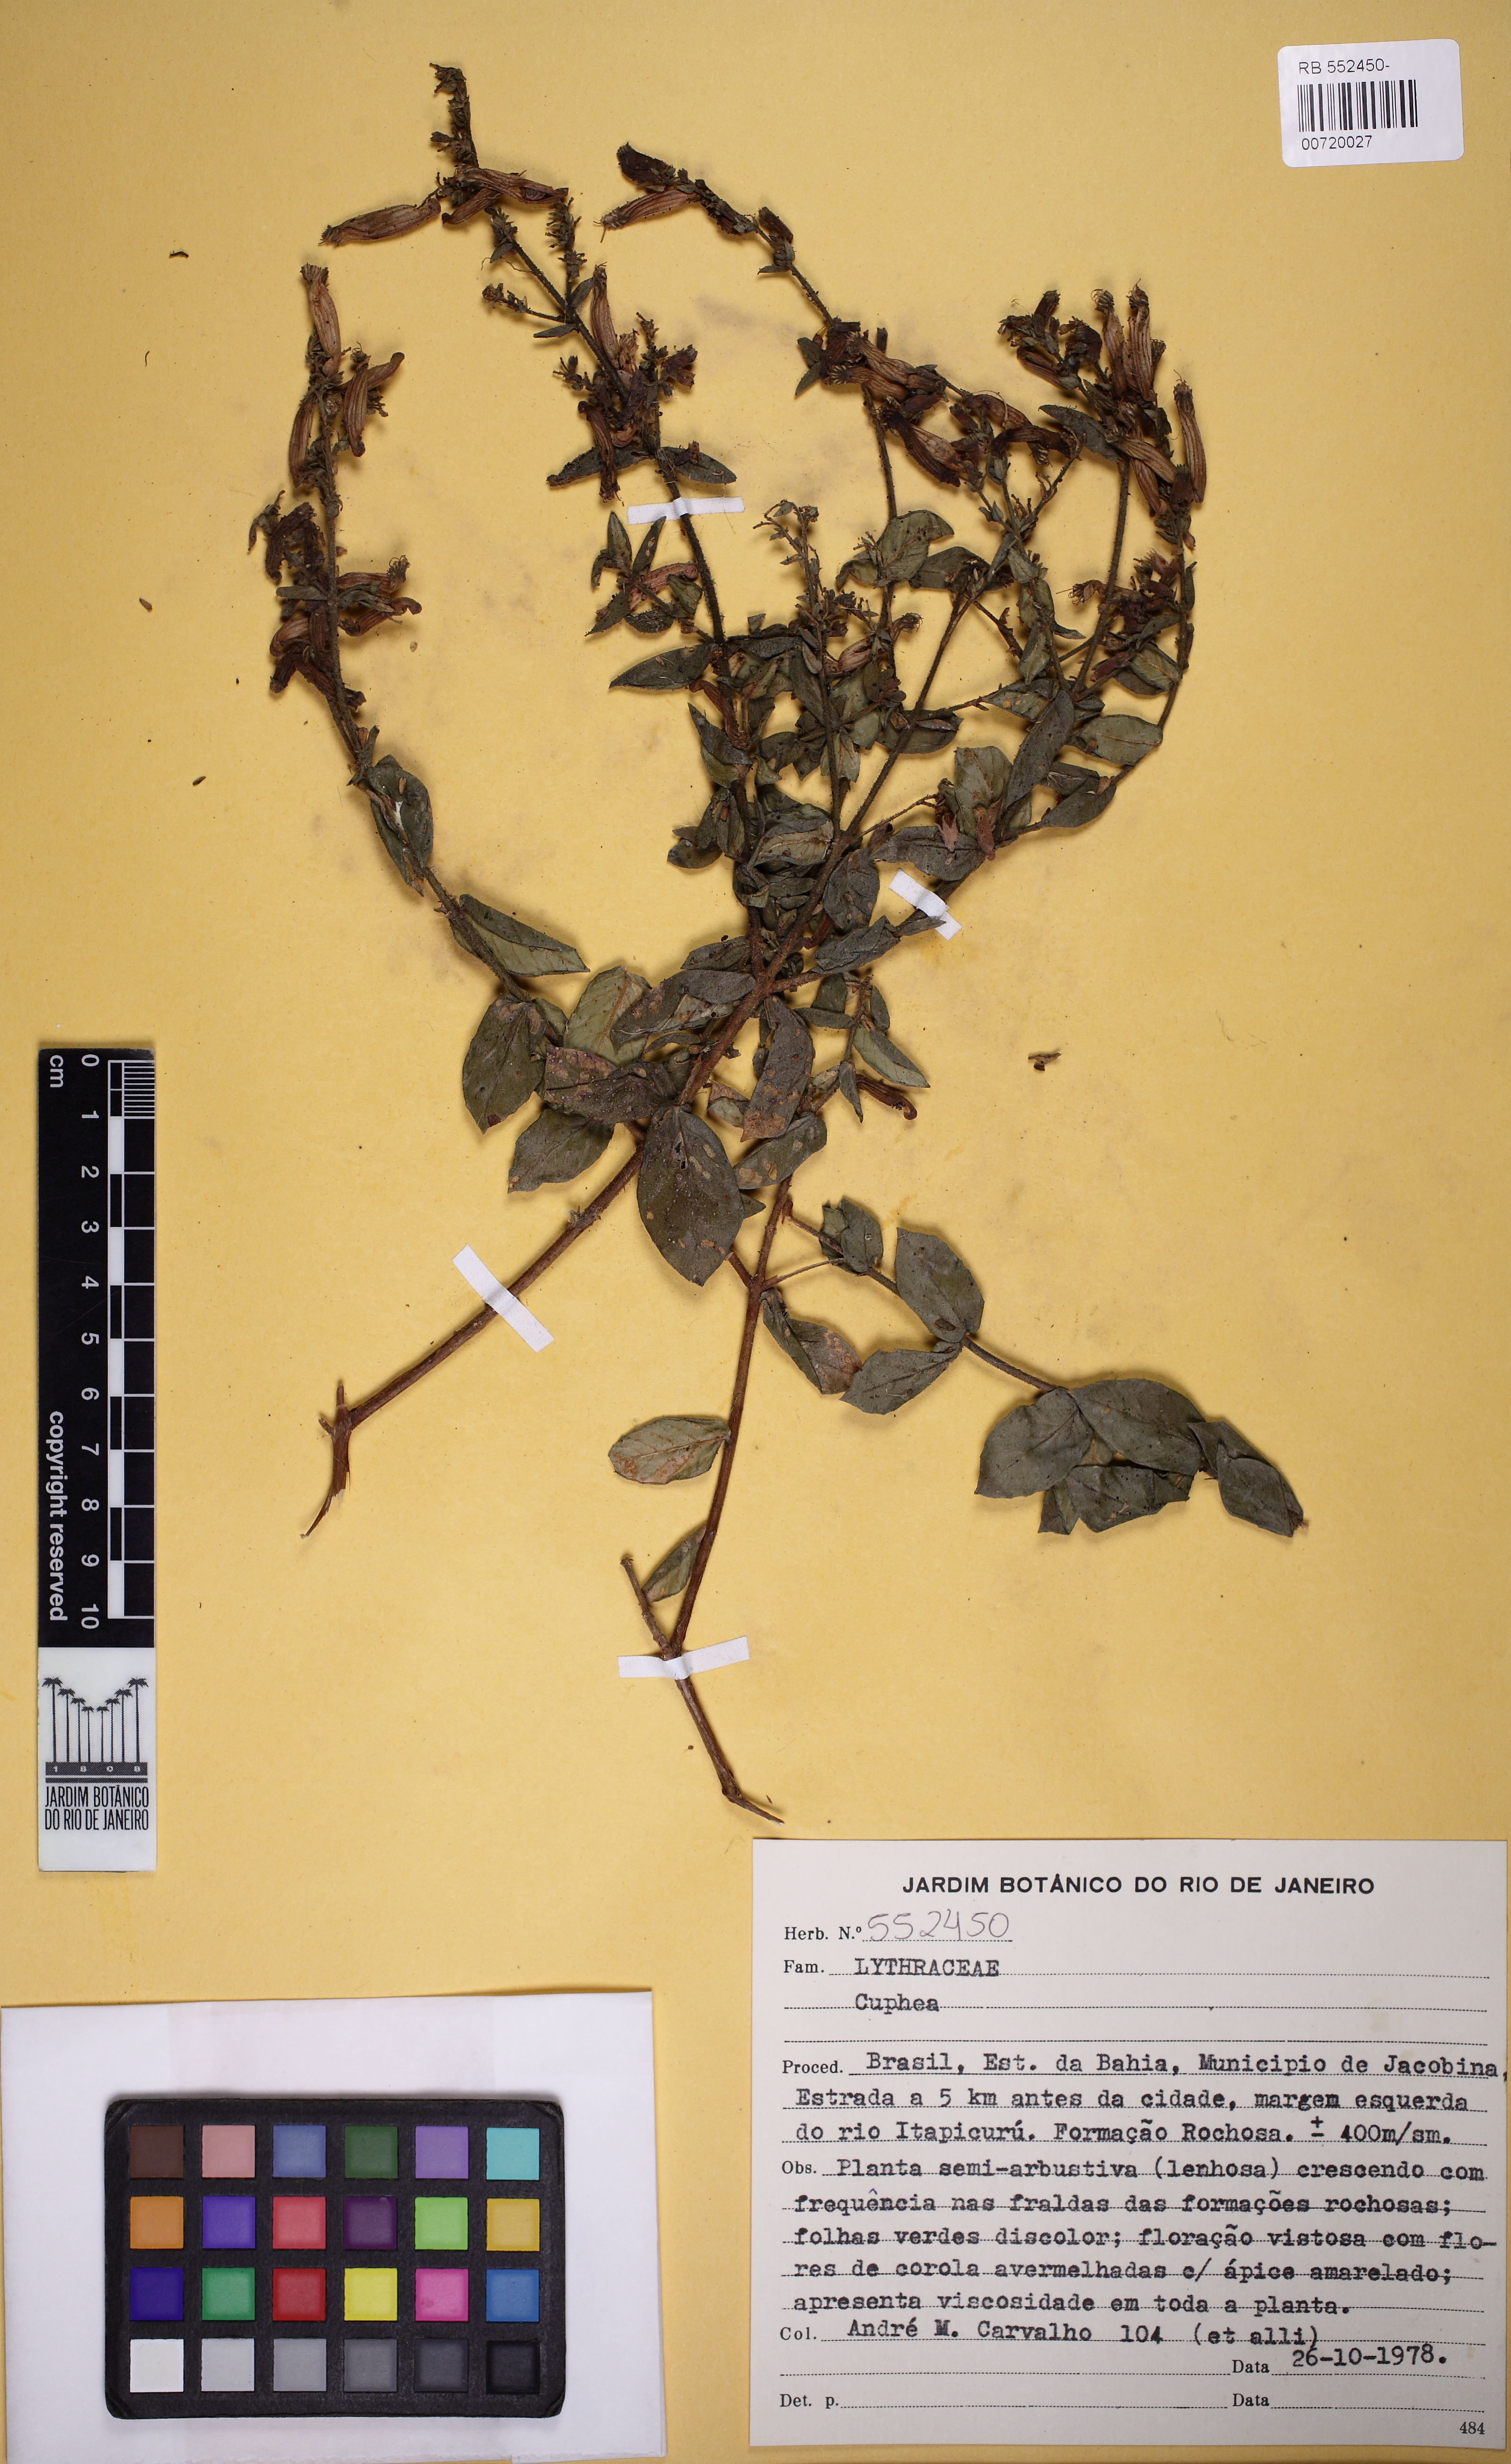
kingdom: Plantae
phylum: Tracheophyta
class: Magnoliopsida
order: Myrtales
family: Lythraceae
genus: Cuphea
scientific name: Cuphea pulchra
